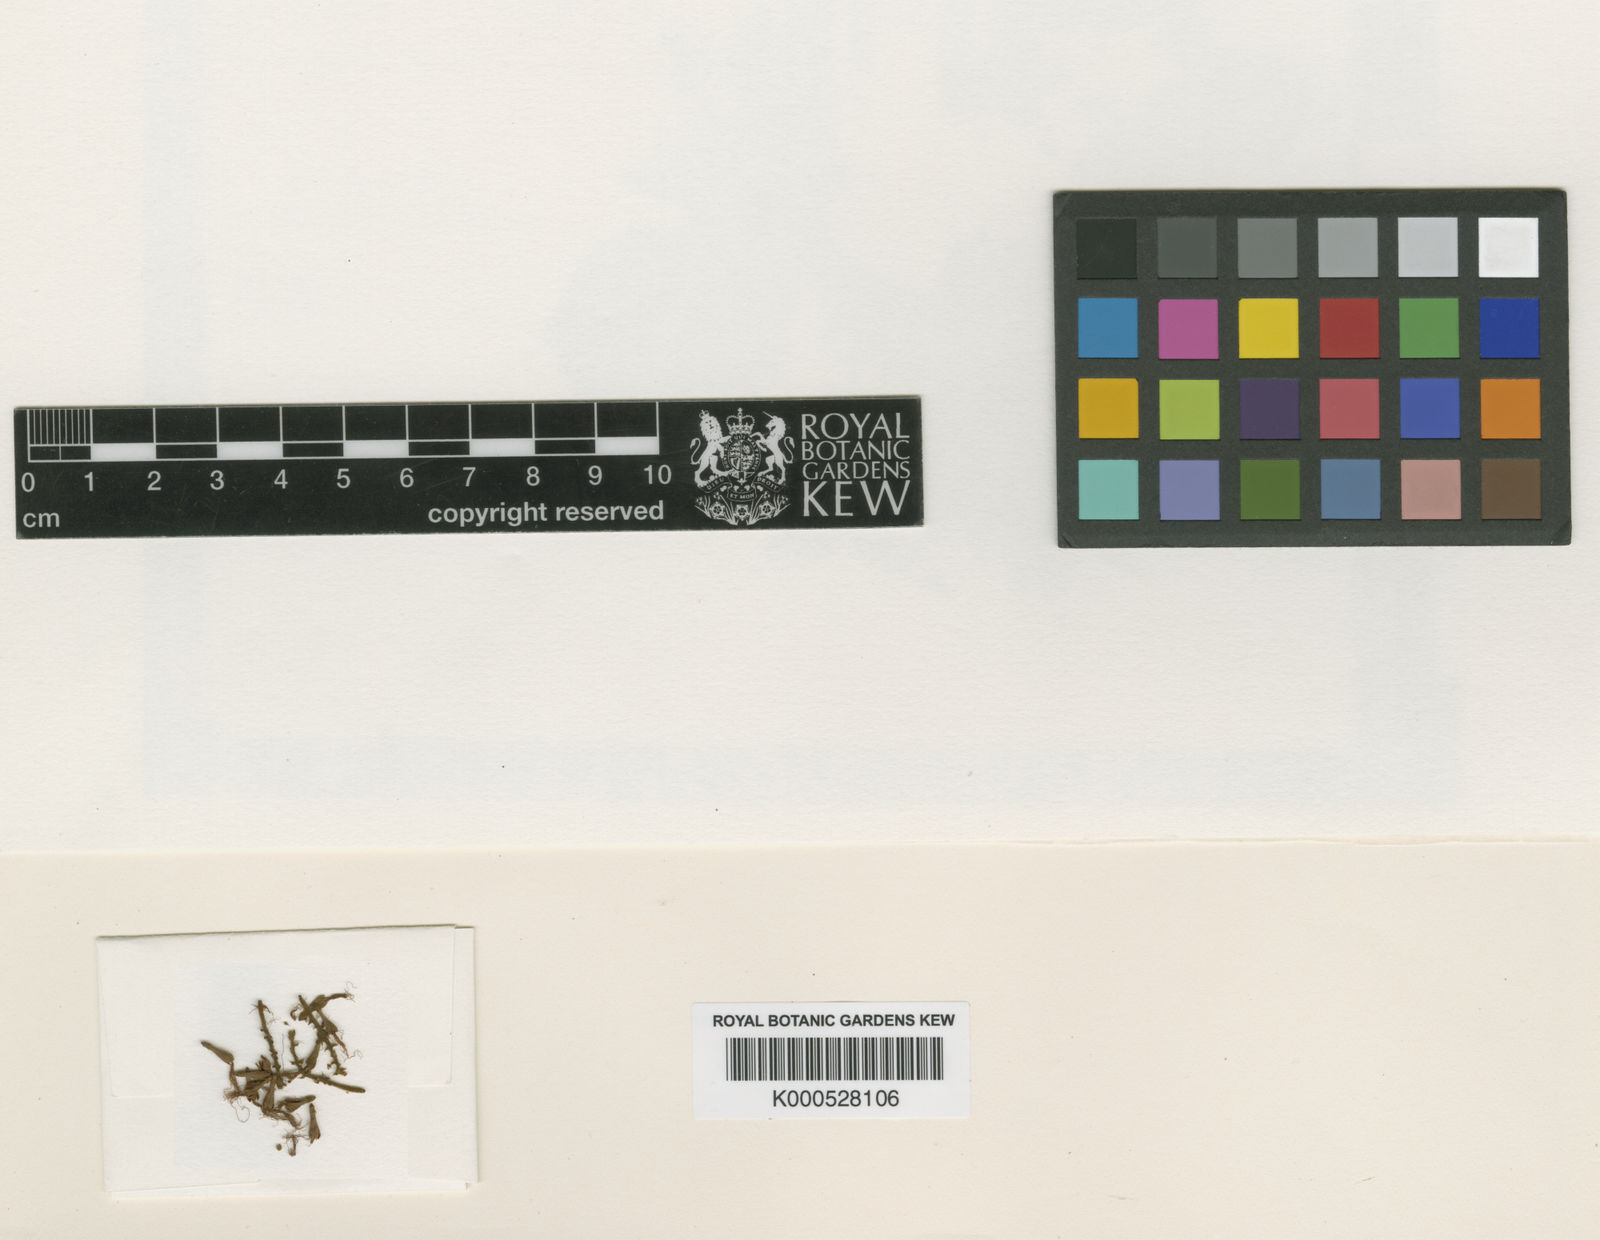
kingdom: Plantae
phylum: Tracheophyta
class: Magnoliopsida
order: Fabales
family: Fabaceae
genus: Zygia
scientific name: Zygia dinizii
